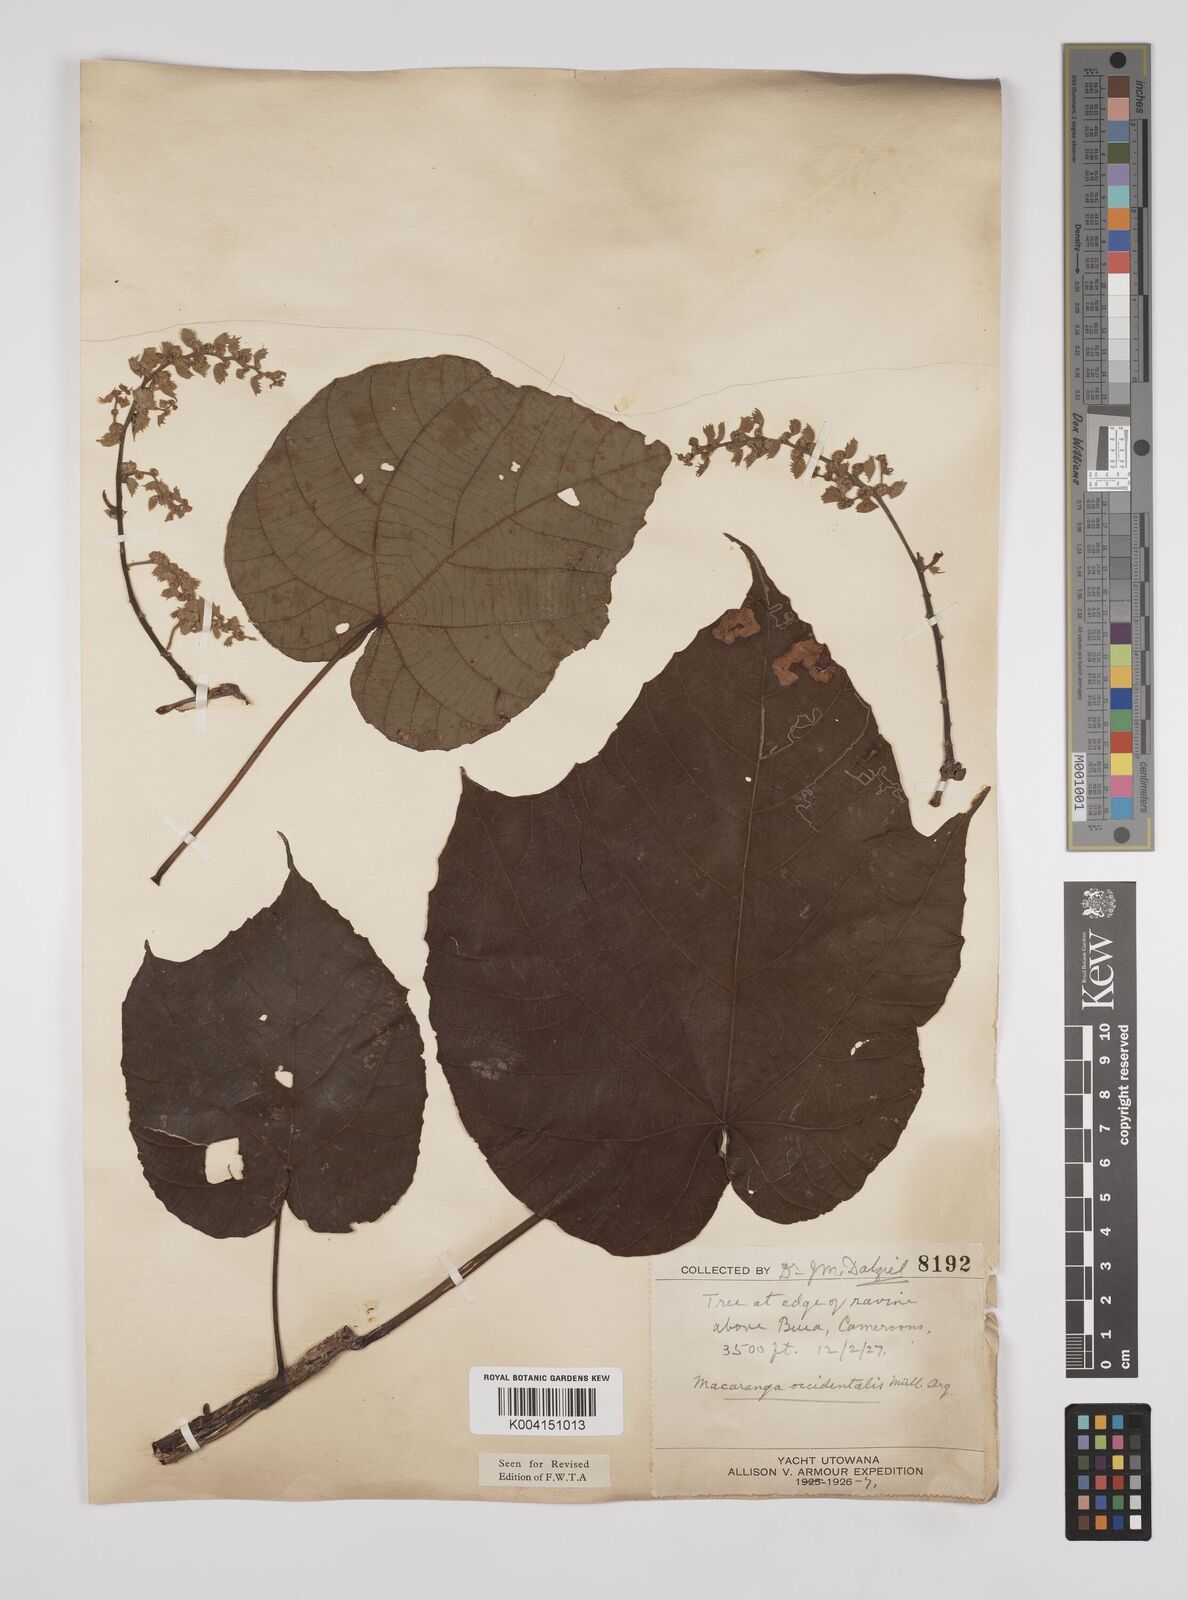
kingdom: Plantae
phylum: Tracheophyta
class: Magnoliopsida
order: Malpighiales
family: Euphorbiaceae
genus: Macaranga
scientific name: Macaranga occidentalis
